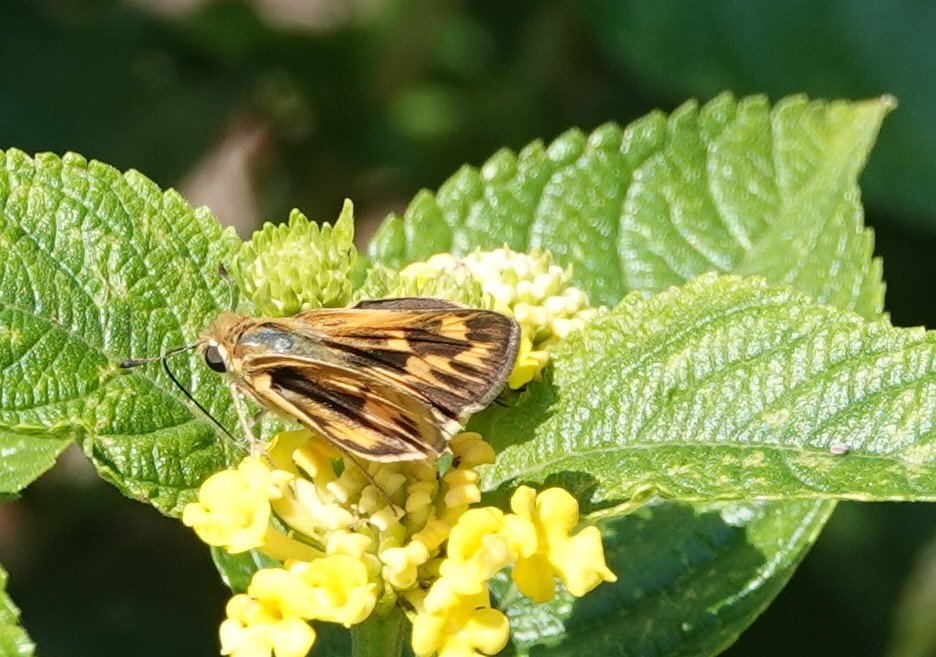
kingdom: Animalia
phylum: Arthropoda
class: Insecta
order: Lepidoptera
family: Hesperiidae
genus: Hylephila
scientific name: Hylephila phyleus
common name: Fiery Skipper
